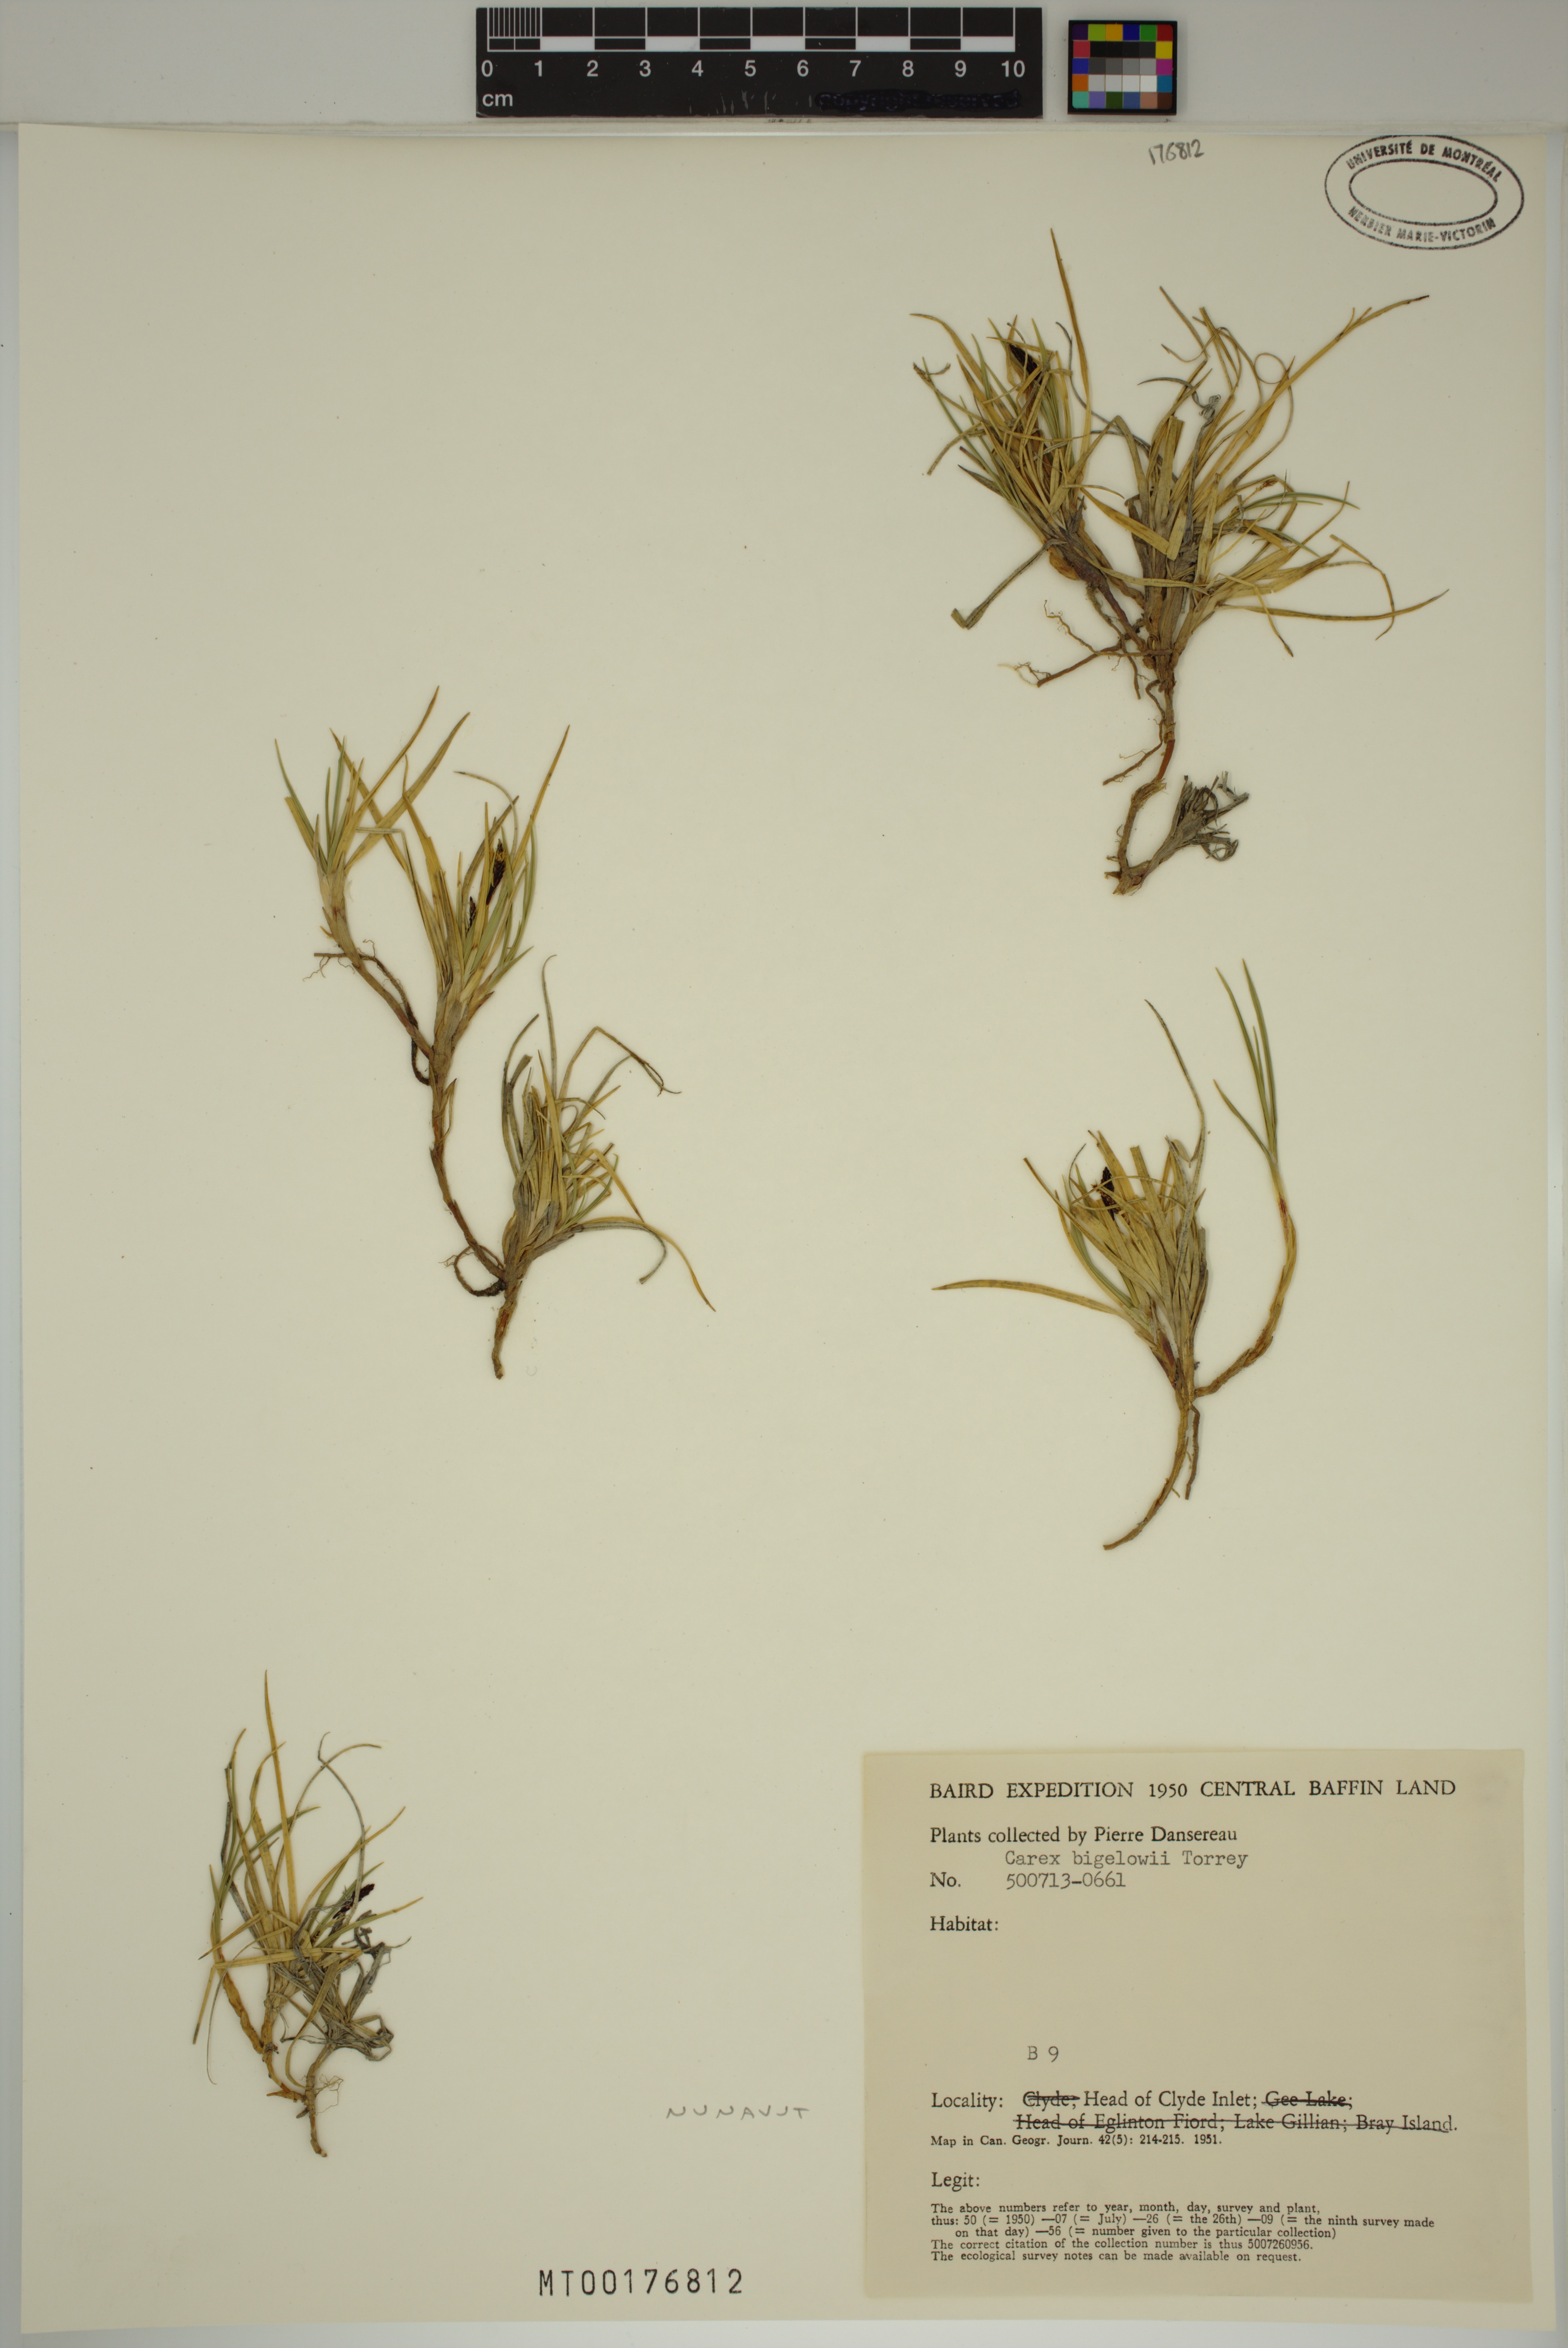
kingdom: Plantae
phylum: Tracheophyta
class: Liliopsida
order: Poales
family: Cyperaceae
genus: Carex
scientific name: Carex bigelowii
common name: Stiff sedge
